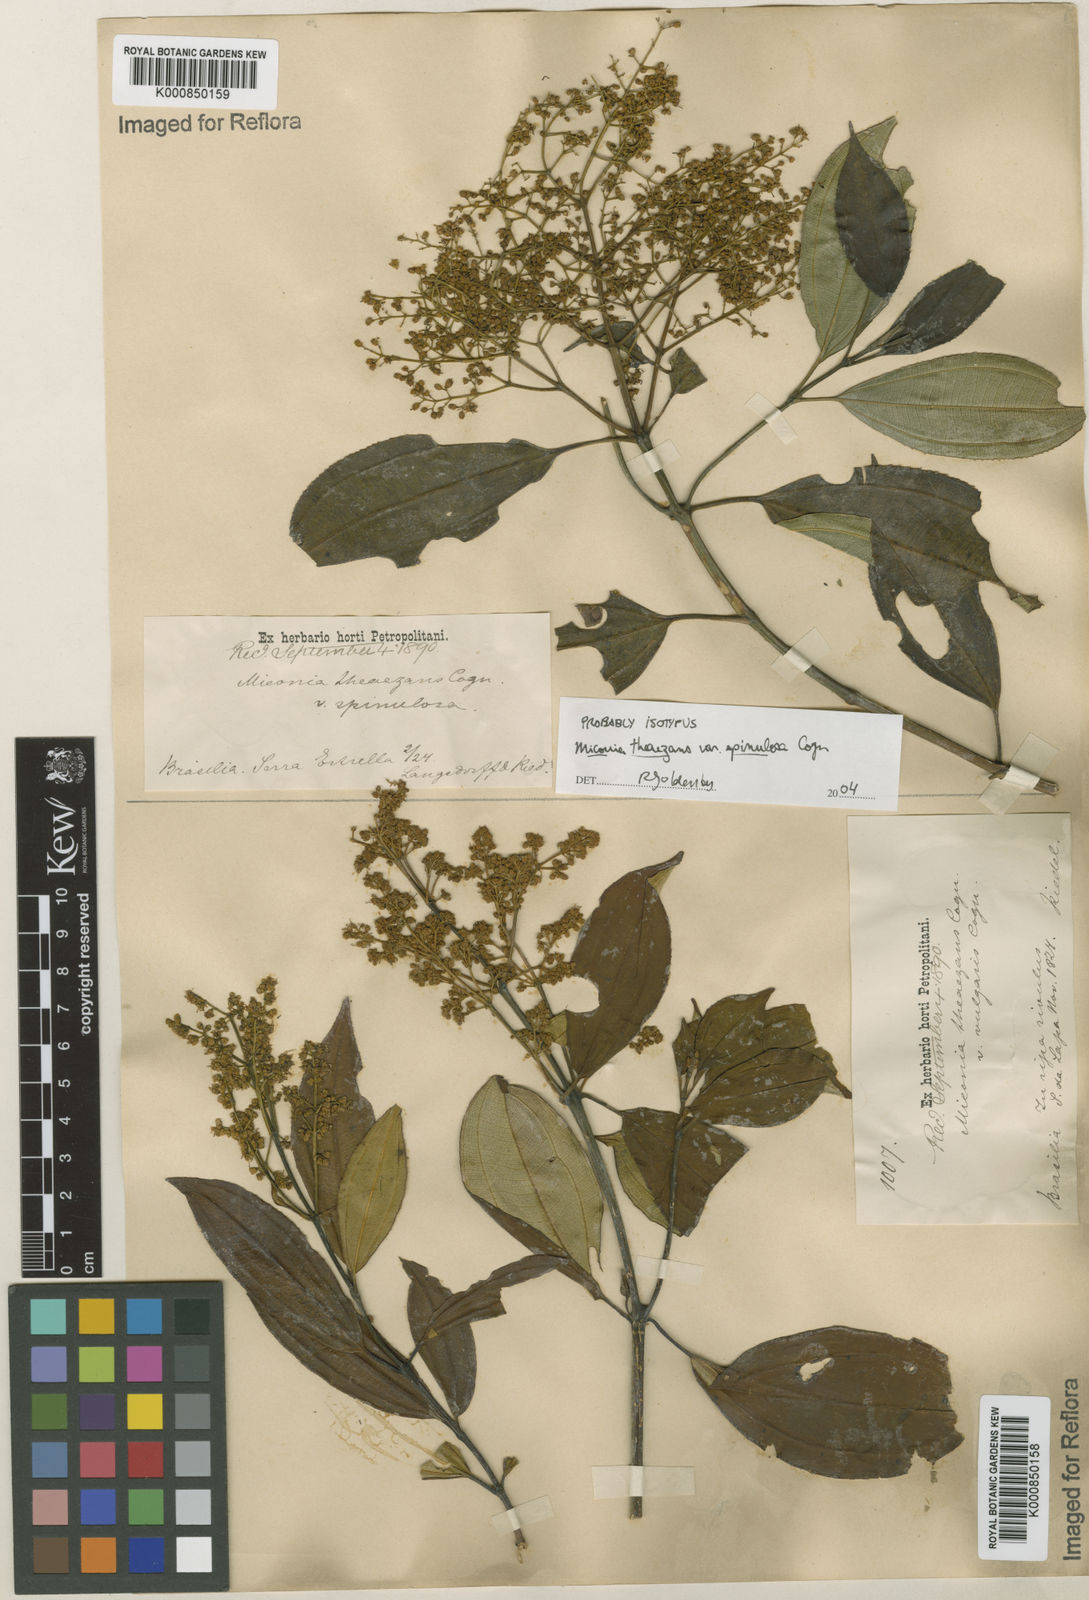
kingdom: Plantae
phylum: Tracheophyta
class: Magnoliopsida
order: Myrtales
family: Melastomataceae
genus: Miconia
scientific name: Miconia
